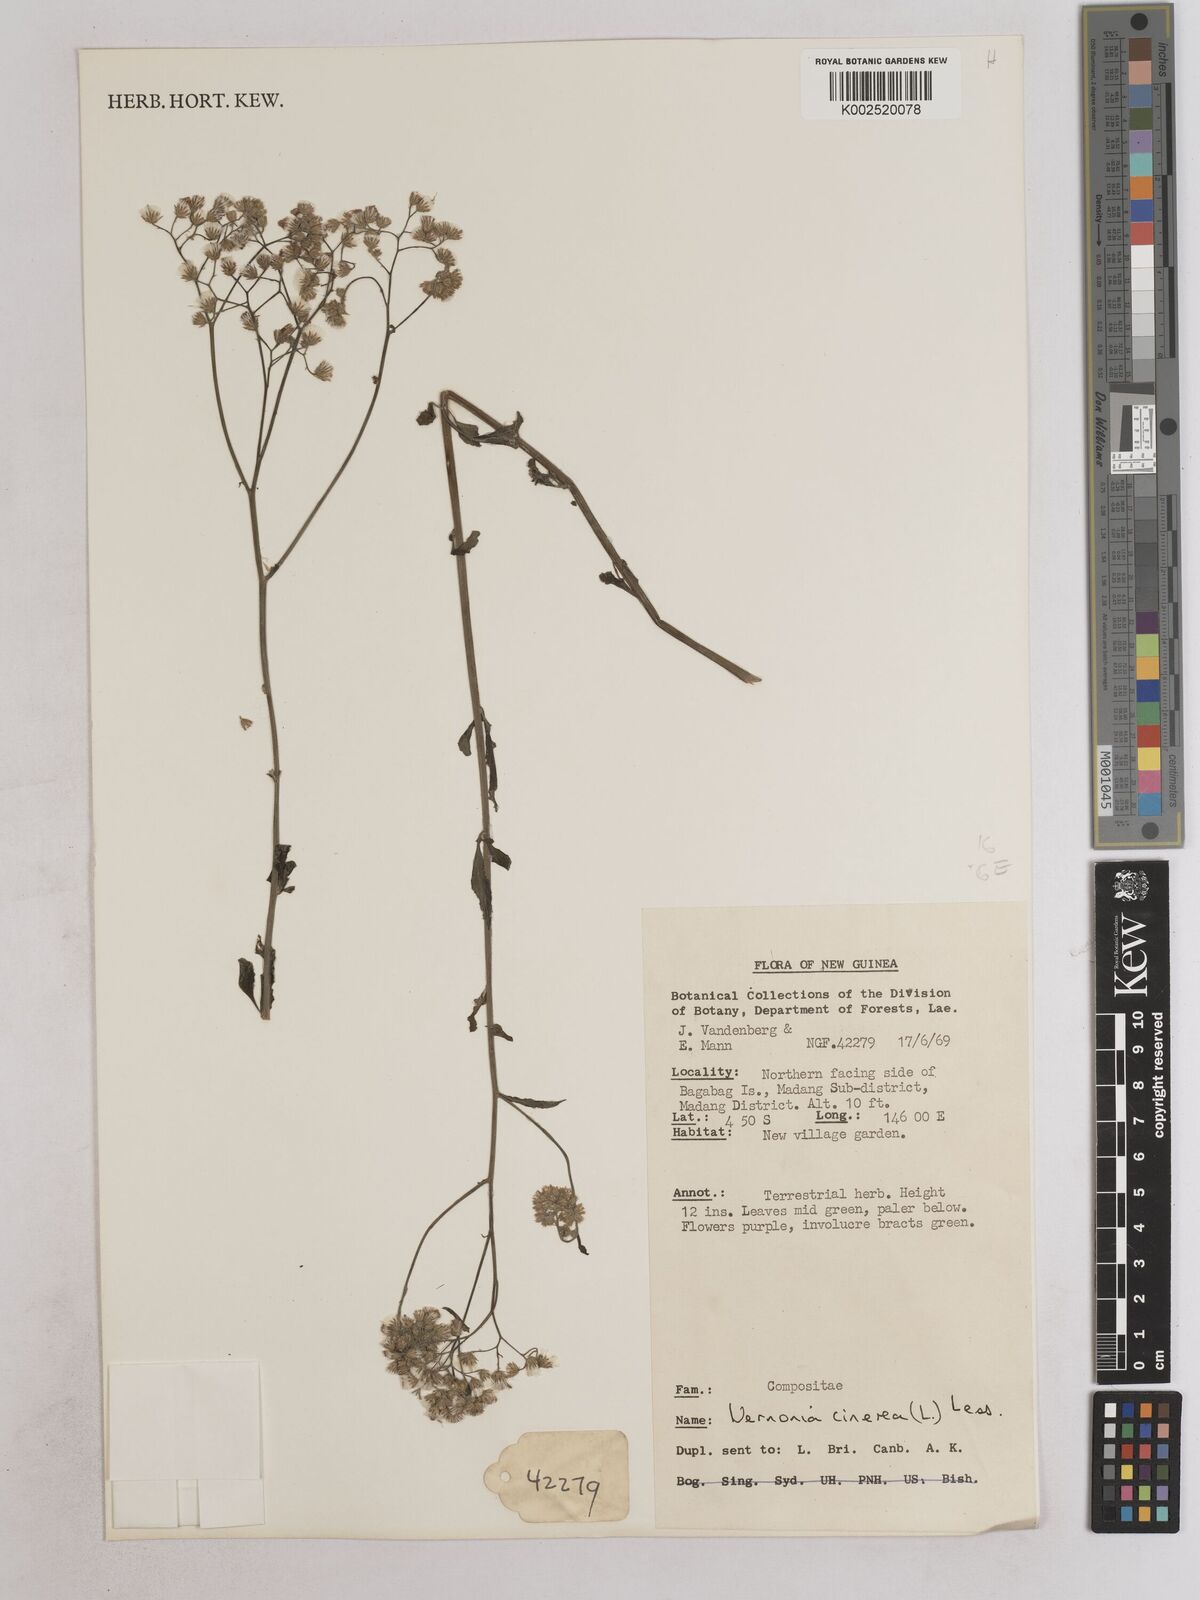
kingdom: Plantae
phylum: Tracheophyta
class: Magnoliopsida
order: Asterales
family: Asteraceae
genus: Cyanthillium
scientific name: Cyanthillium cinereum
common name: Little ironweed
